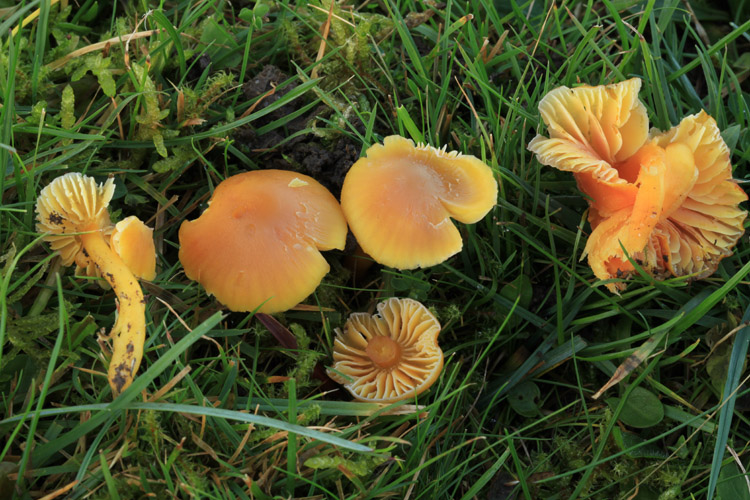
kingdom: Fungi
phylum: Basidiomycota
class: Agaricomycetes
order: Agaricales
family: Hygrophoraceae
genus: Hygrocybe
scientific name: Hygrocybe quieta
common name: tæge-vokshat
